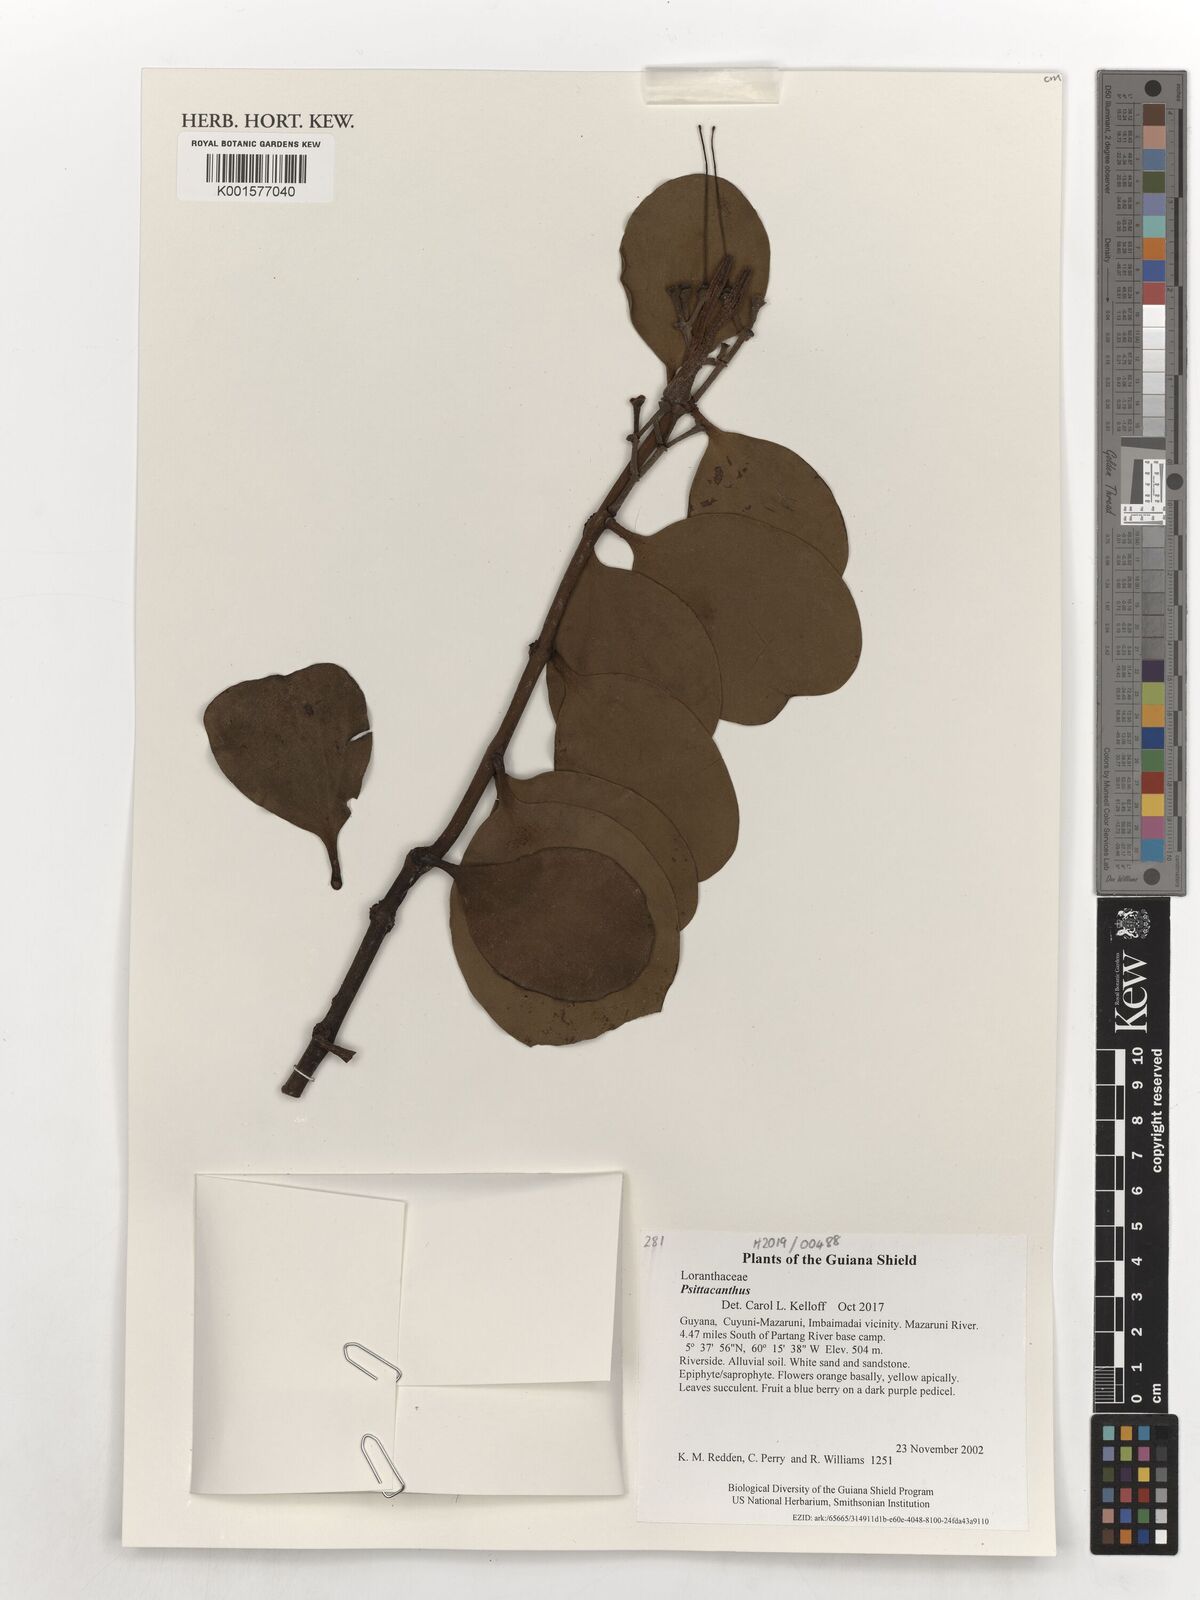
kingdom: Plantae
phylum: Tracheophyta
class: Magnoliopsida
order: Santalales
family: Loranthaceae
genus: Psittacanthus
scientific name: Psittacanthus
